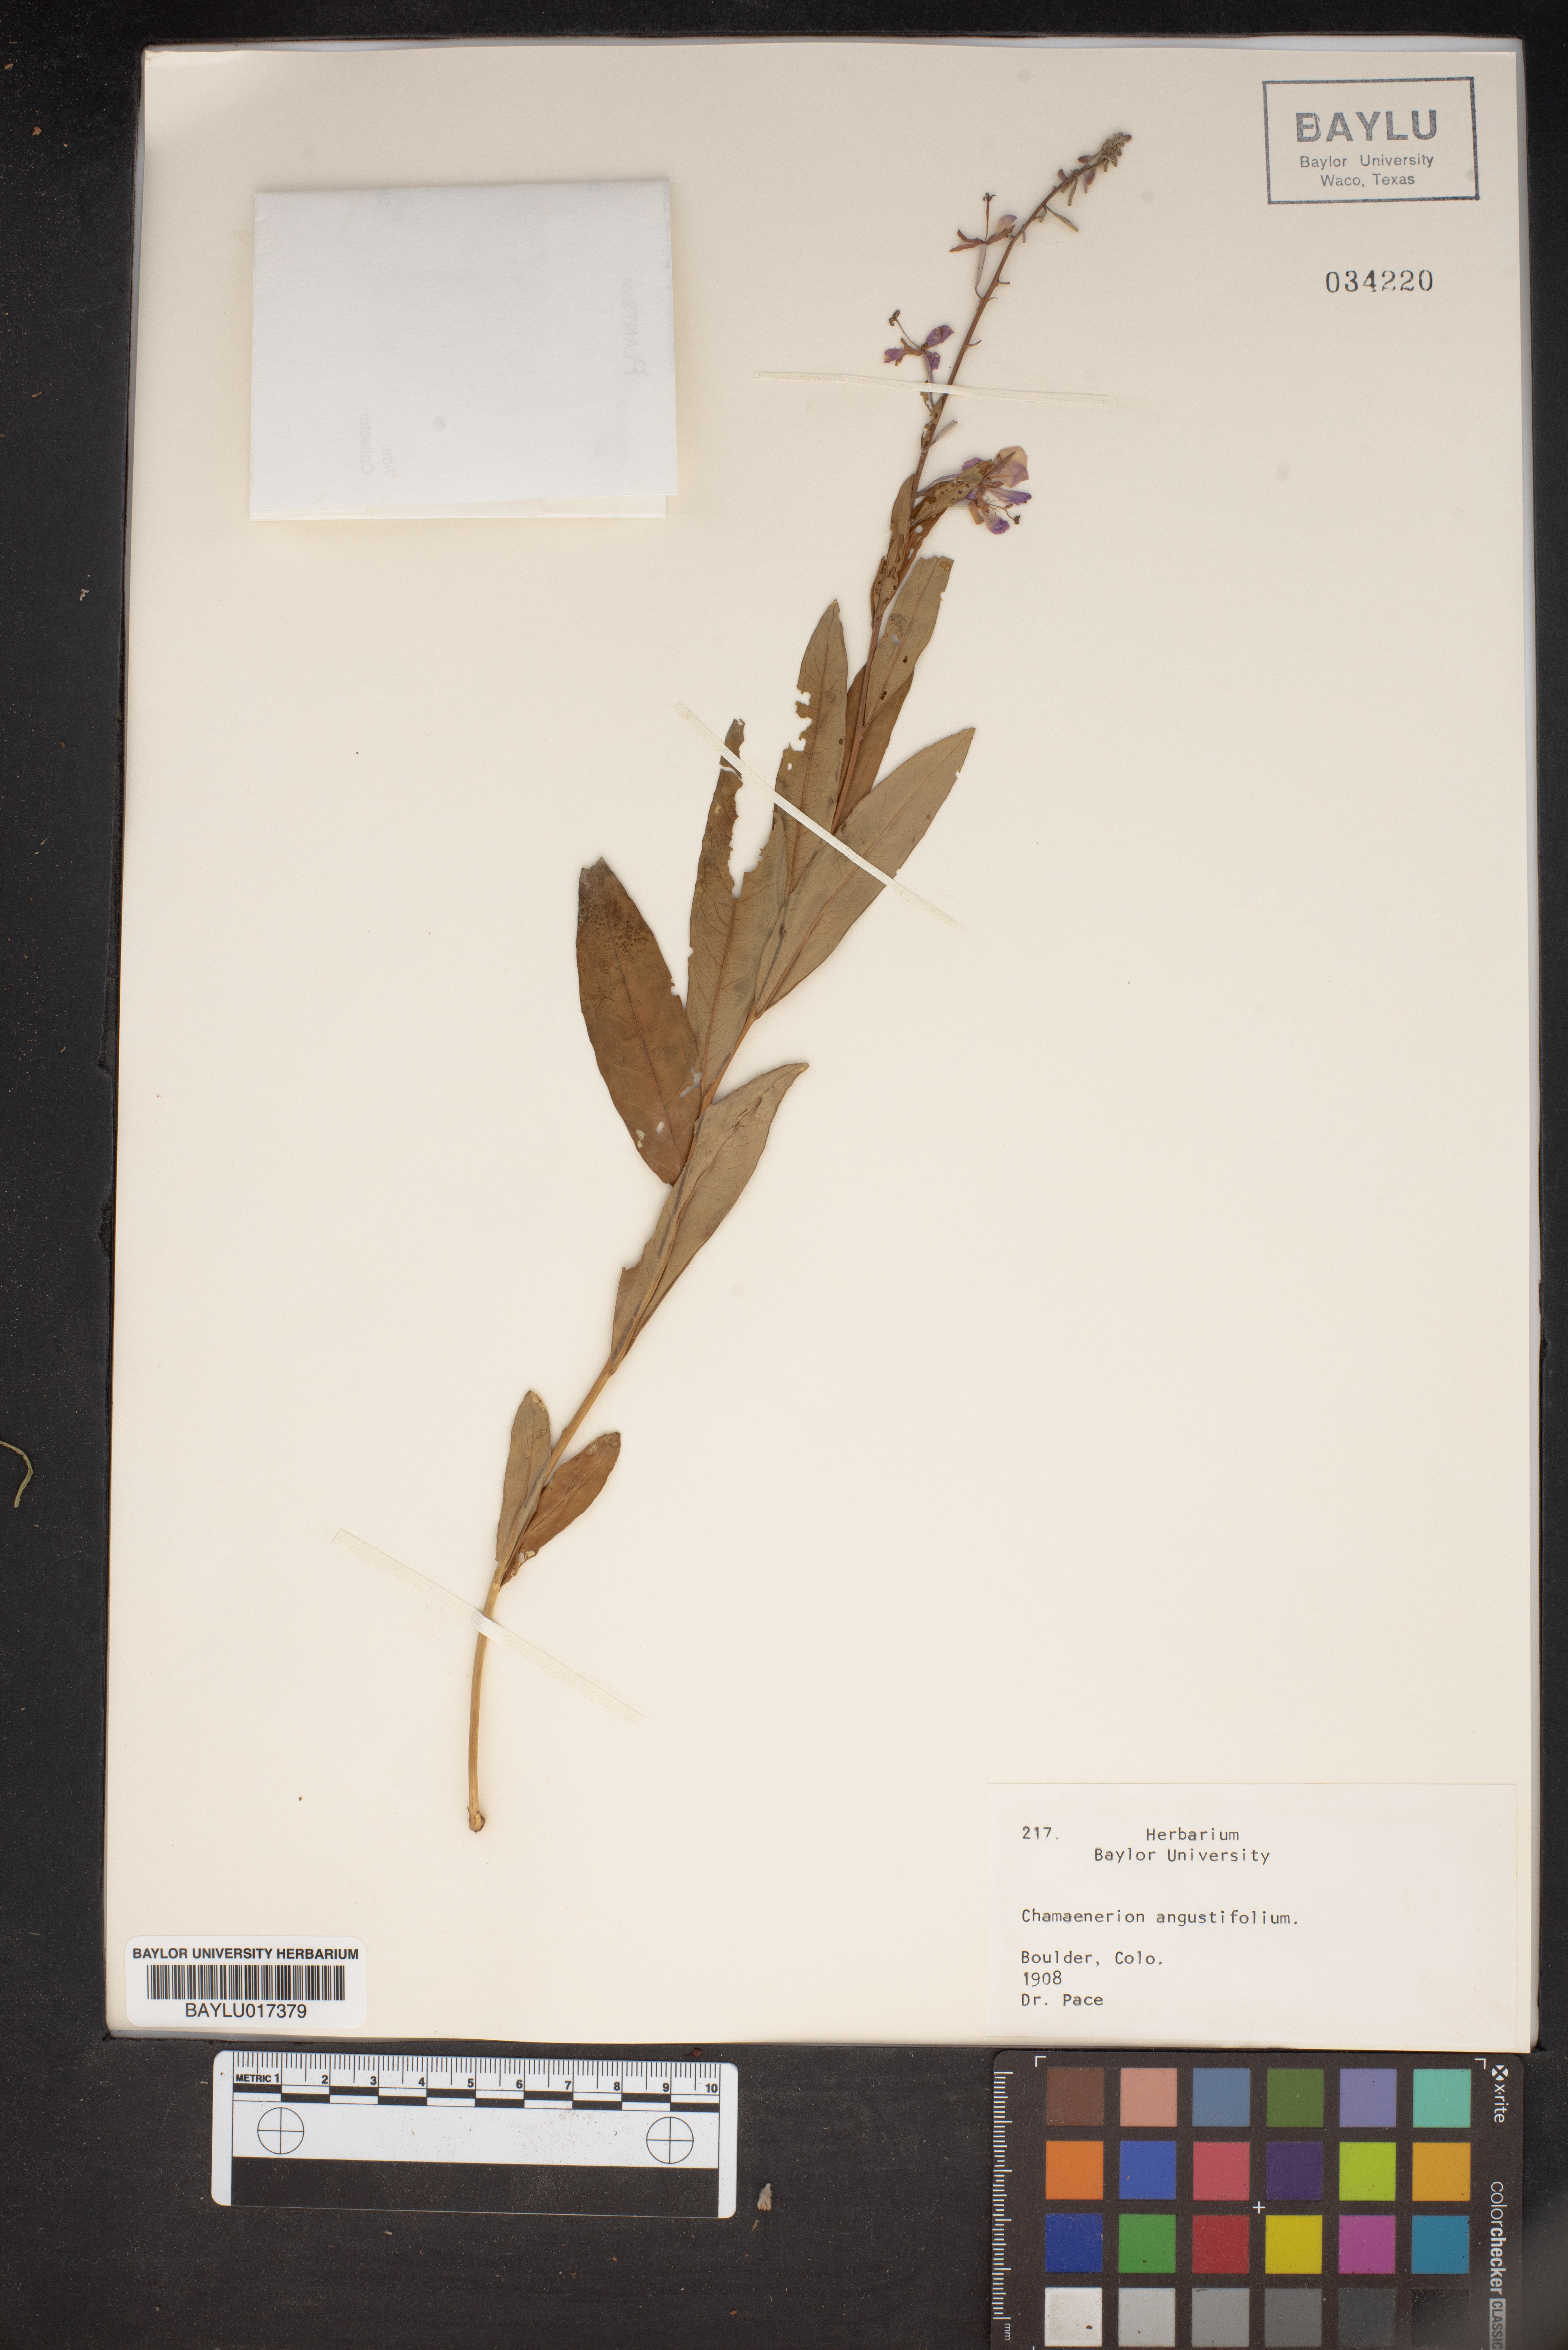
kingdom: Plantae
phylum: Tracheophyta
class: Magnoliopsida
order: Myrtales
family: Onagraceae
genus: Chamaenerion
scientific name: Chamaenerion angustifolium
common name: Fireweed
